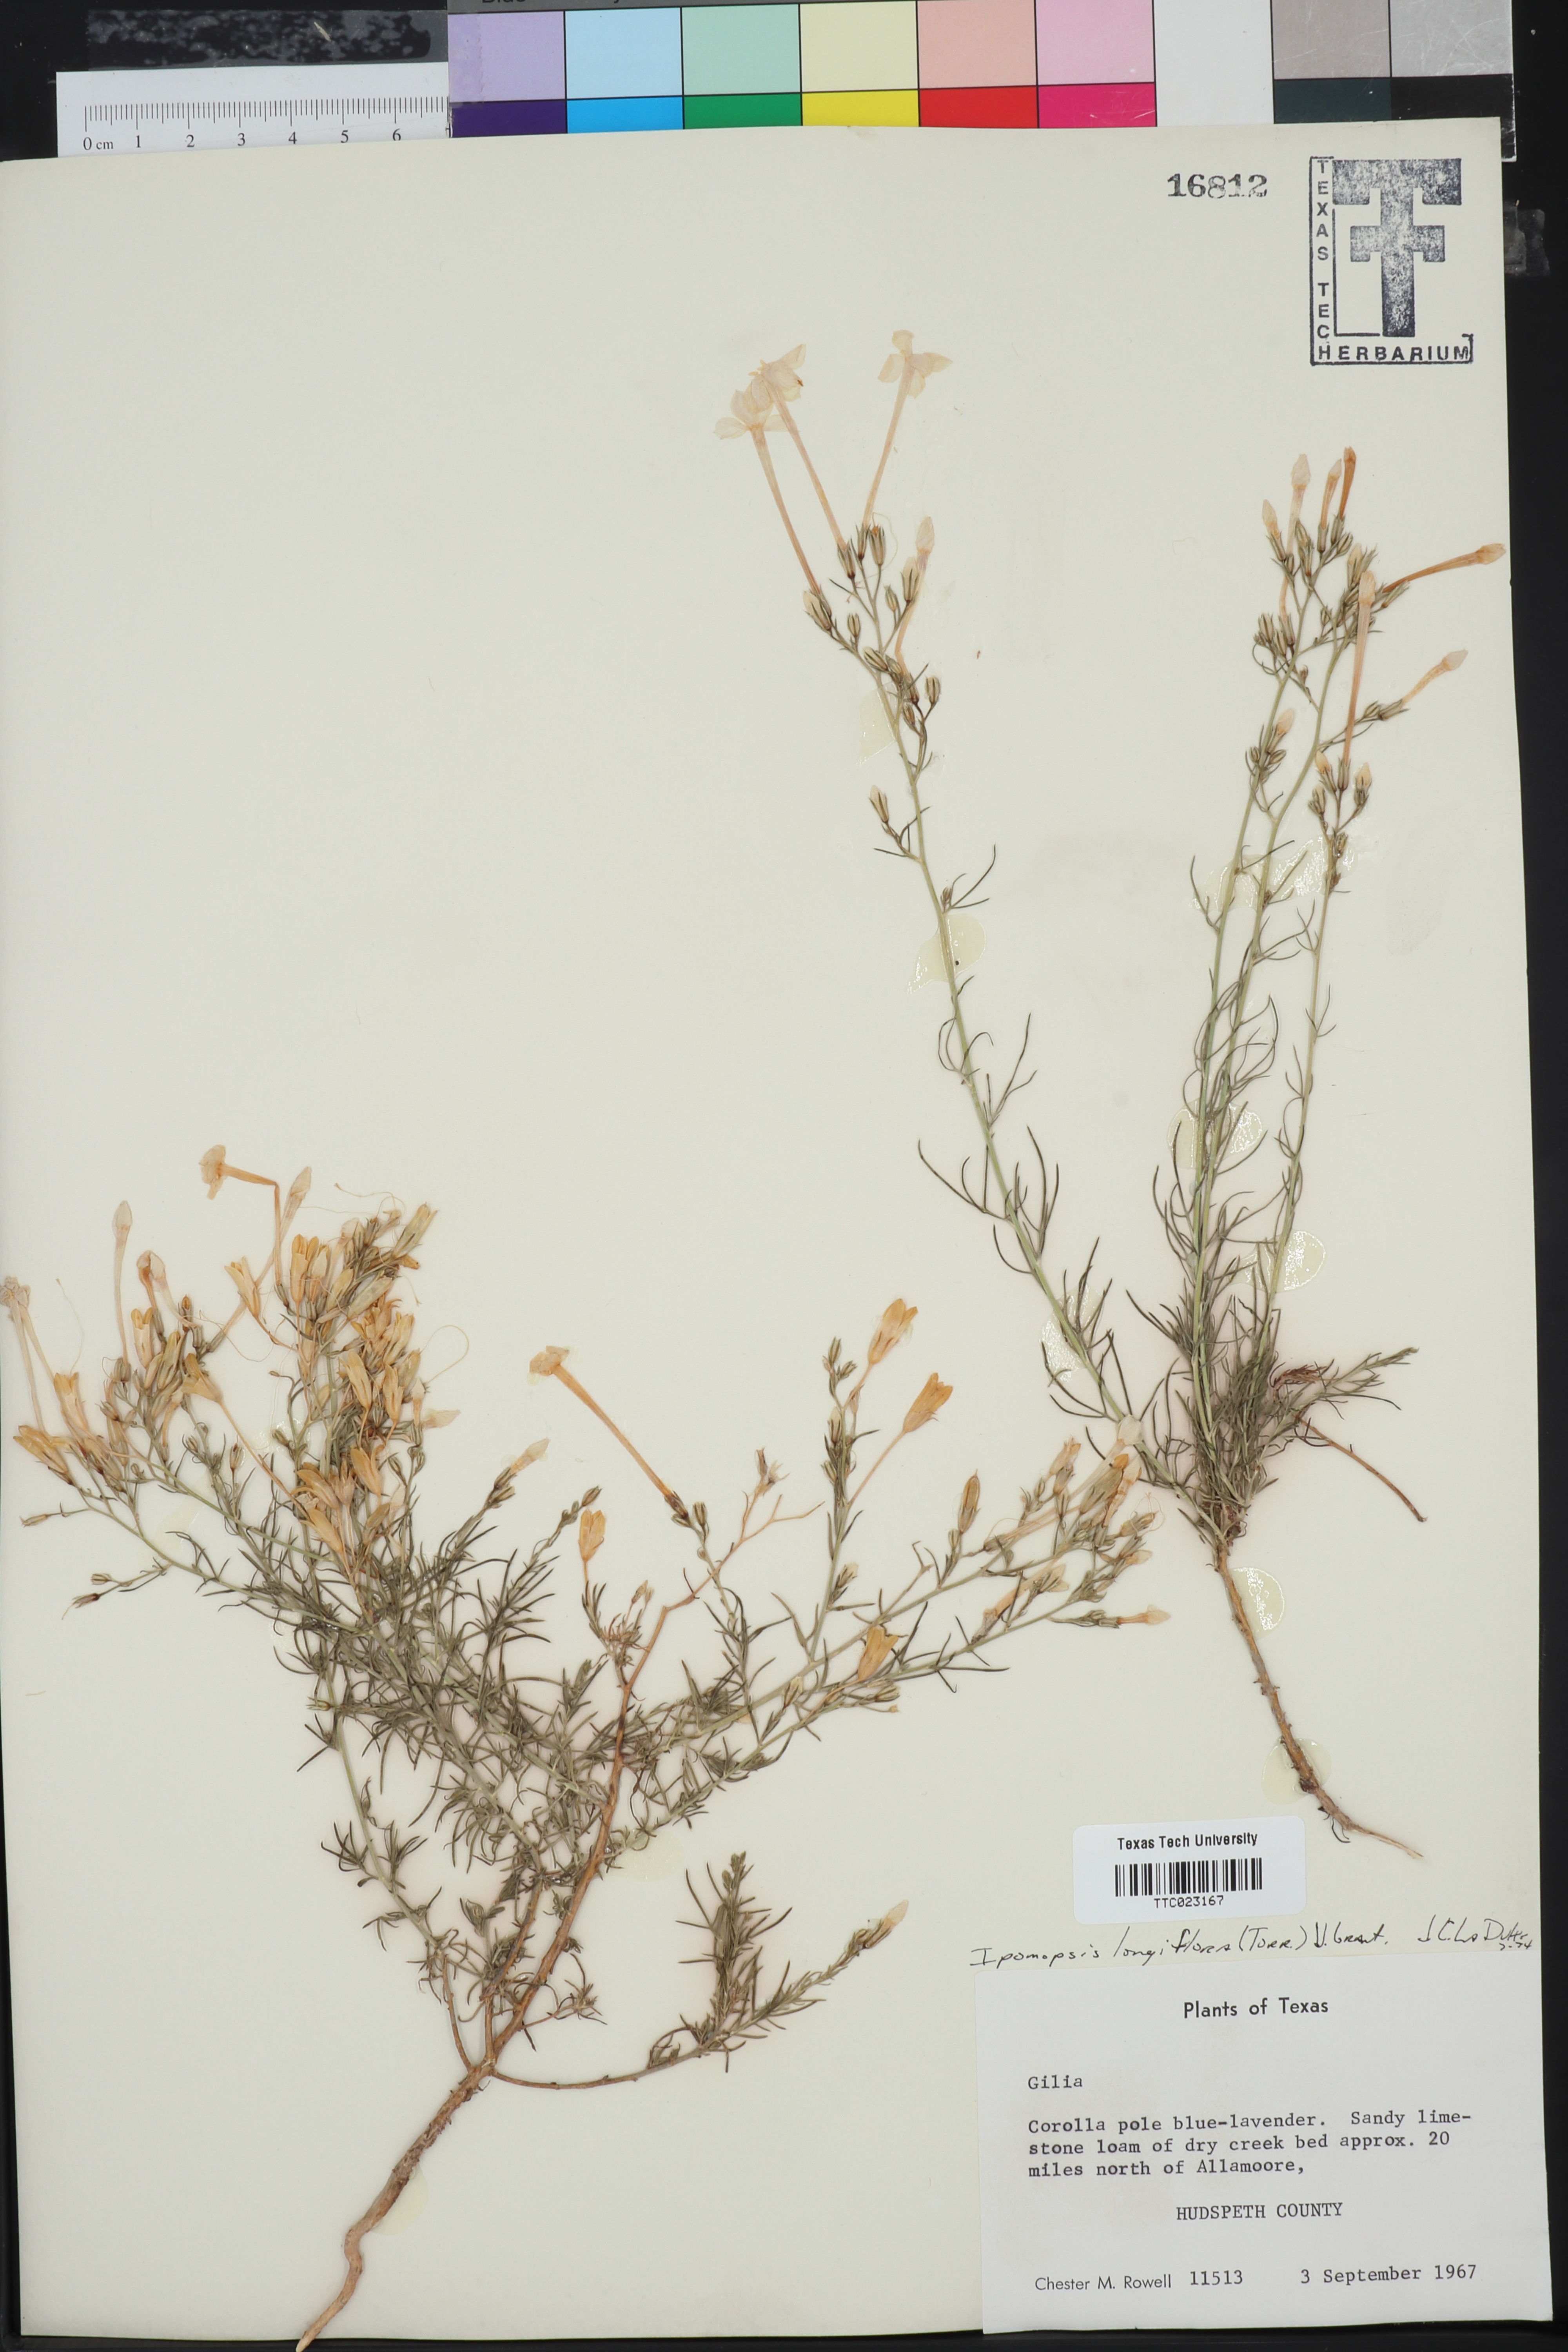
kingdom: Plantae
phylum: Tracheophyta
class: Magnoliopsida
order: Ericales
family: Polemoniaceae
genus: Ipomopsis
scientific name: Ipomopsis longiflora
